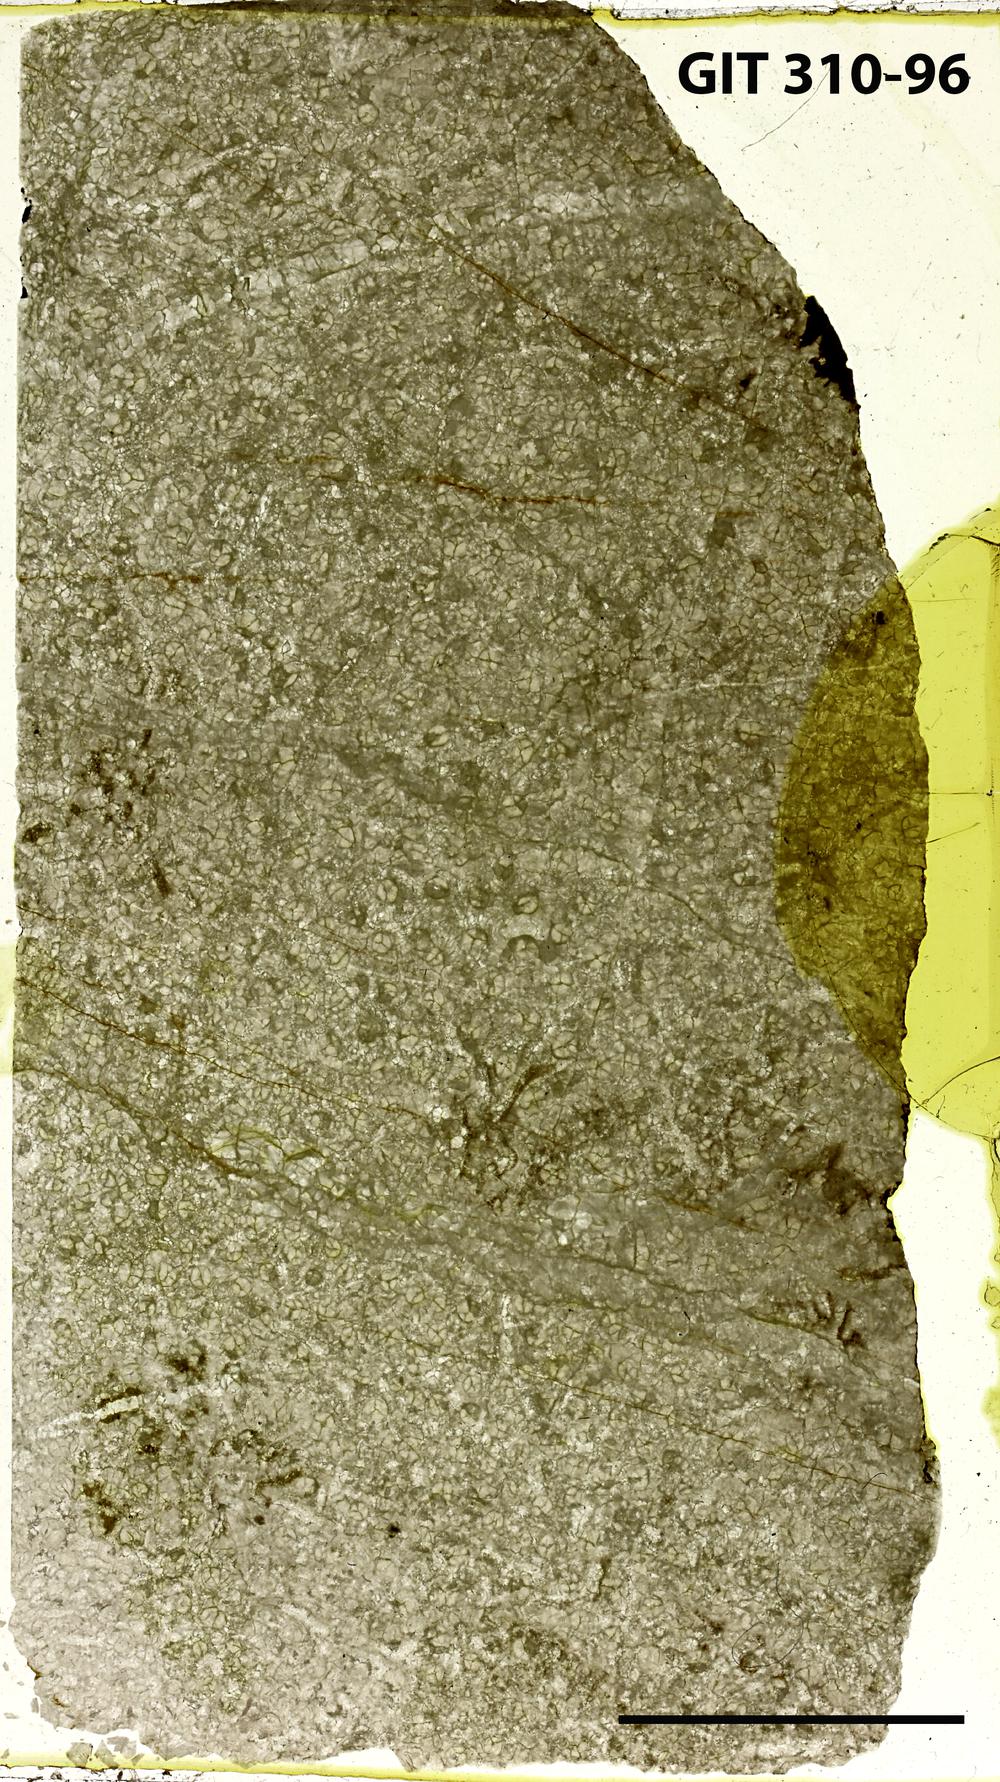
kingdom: Animalia
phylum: Porifera
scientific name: Porifera
